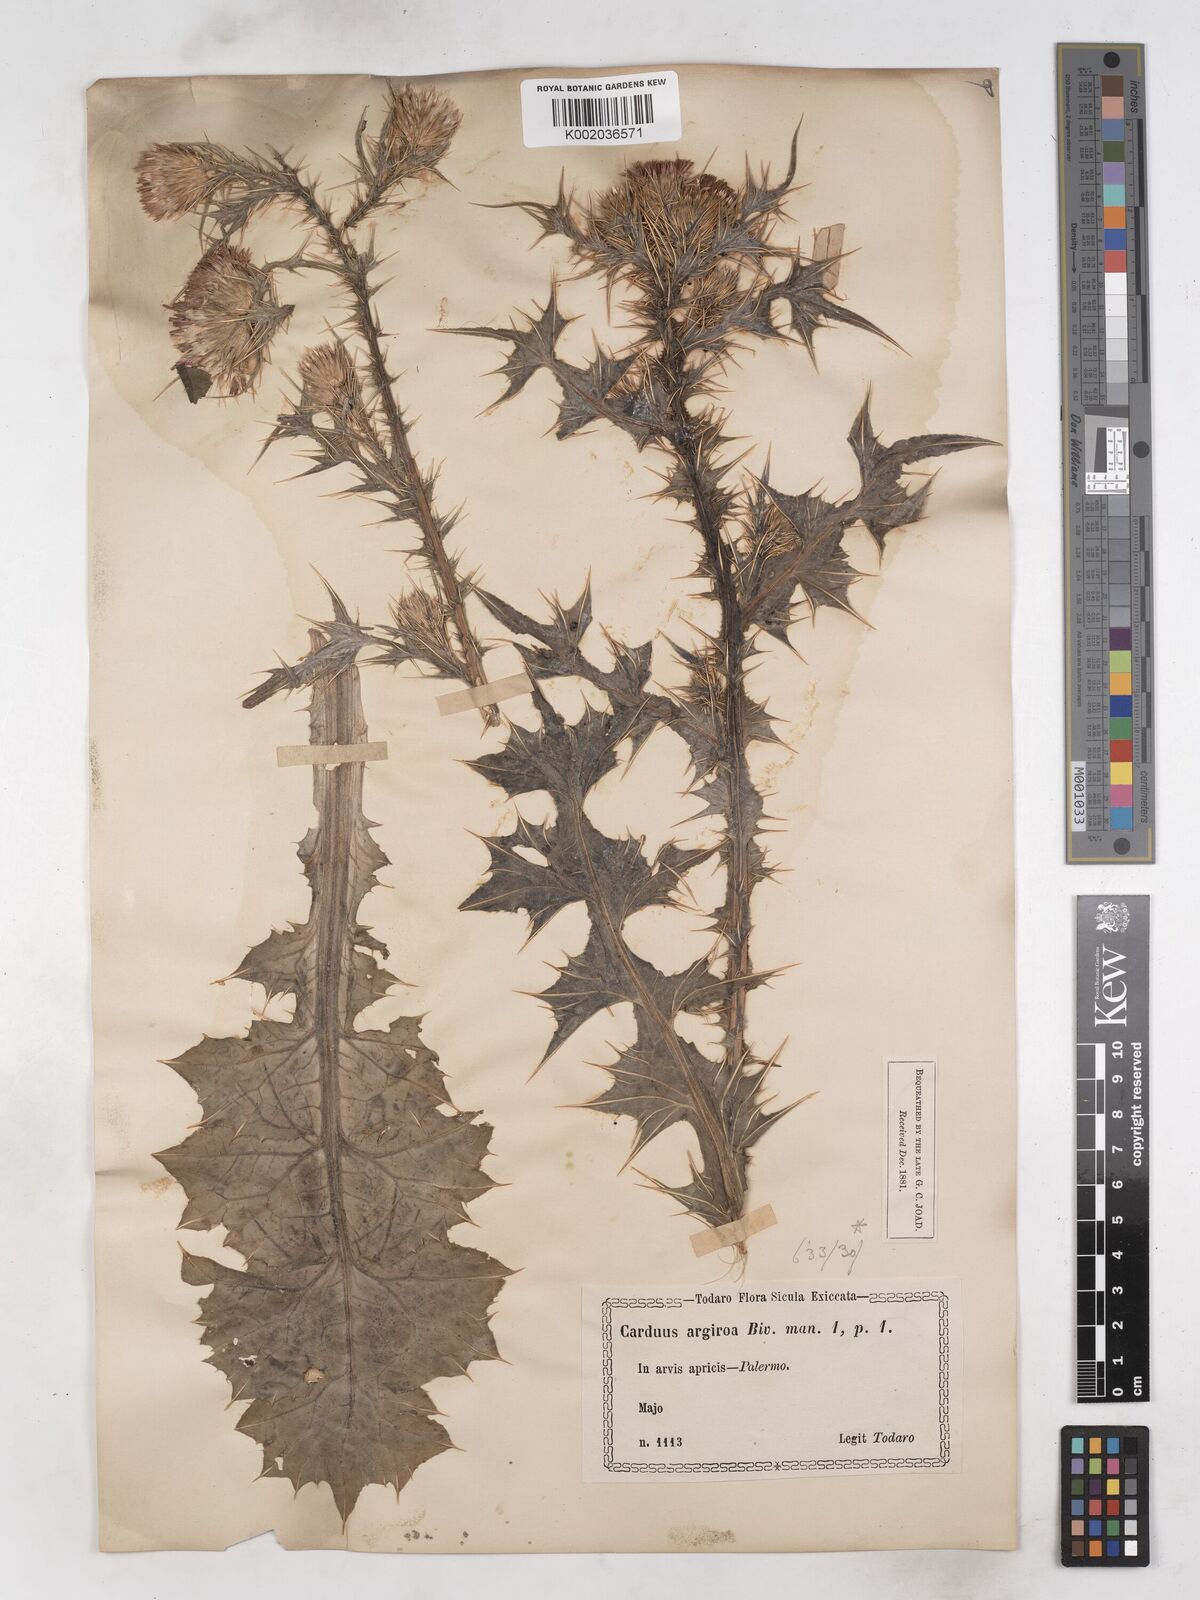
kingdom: Plantae
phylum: Tracheophyta
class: Magnoliopsida
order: Asterales
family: Asteraceae
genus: Carduus
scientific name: Carduus argyroa
